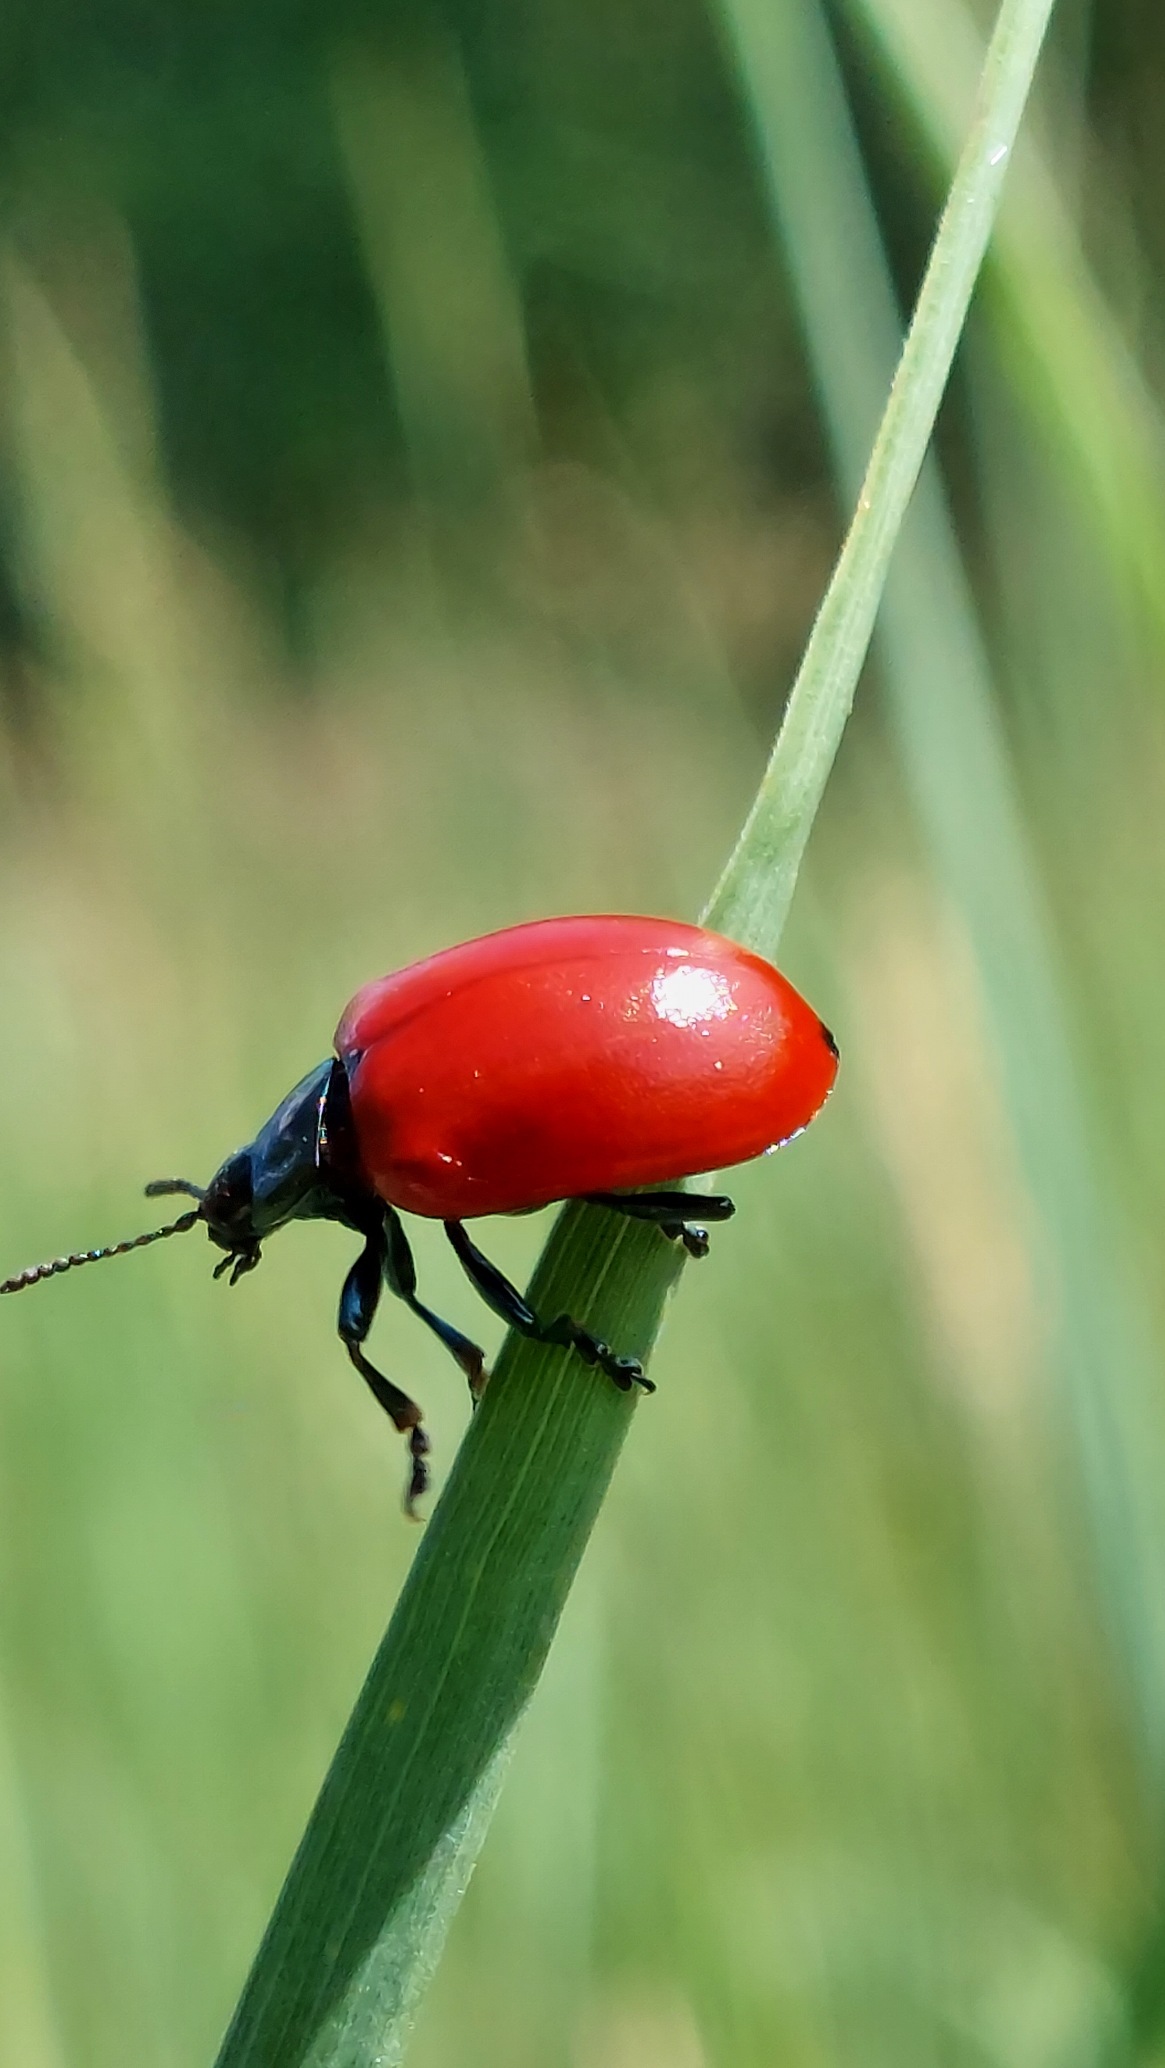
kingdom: Animalia
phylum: Arthropoda
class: Insecta
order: Coleoptera
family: Chrysomelidae
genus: Chrysomela
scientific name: Chrysomela populi
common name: Poppelbladbille
